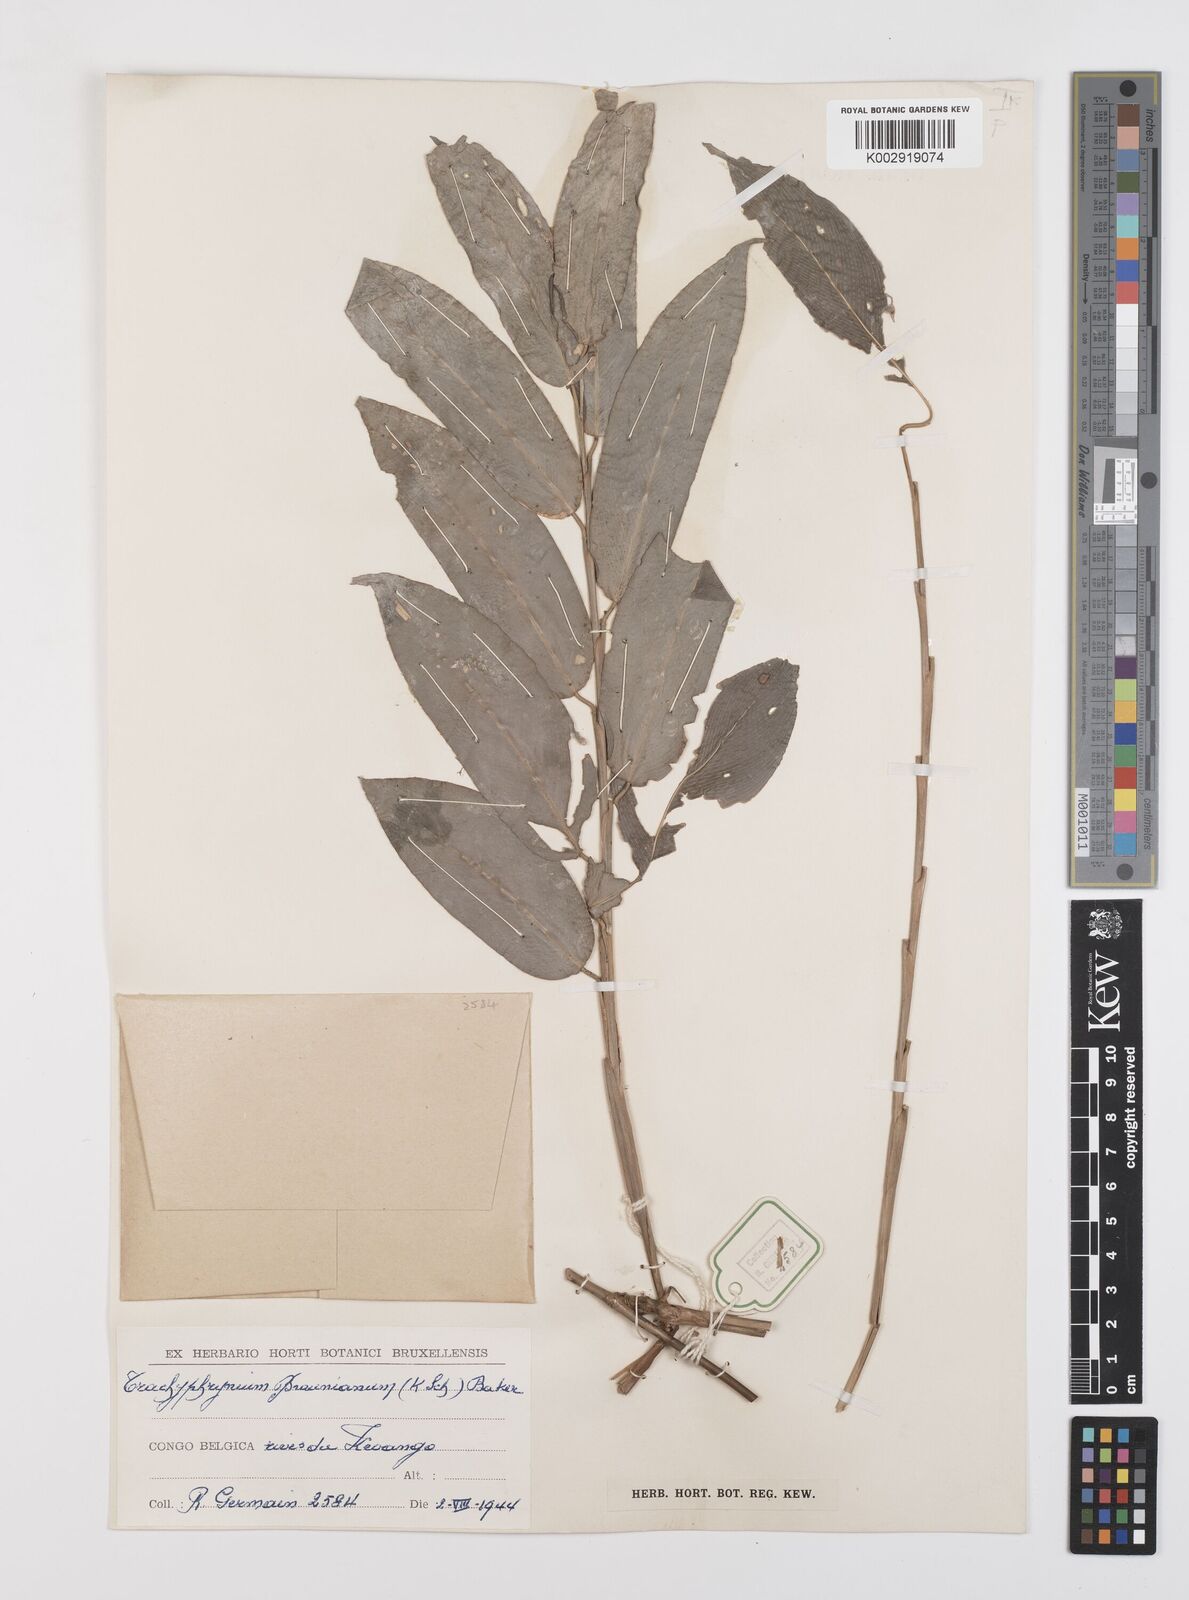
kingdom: Plantae
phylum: Tracheophyta
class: Liliopsida
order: Zingiberales
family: Marantaceae
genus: Trachyphrynium
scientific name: Trachyphrynium braunianum
